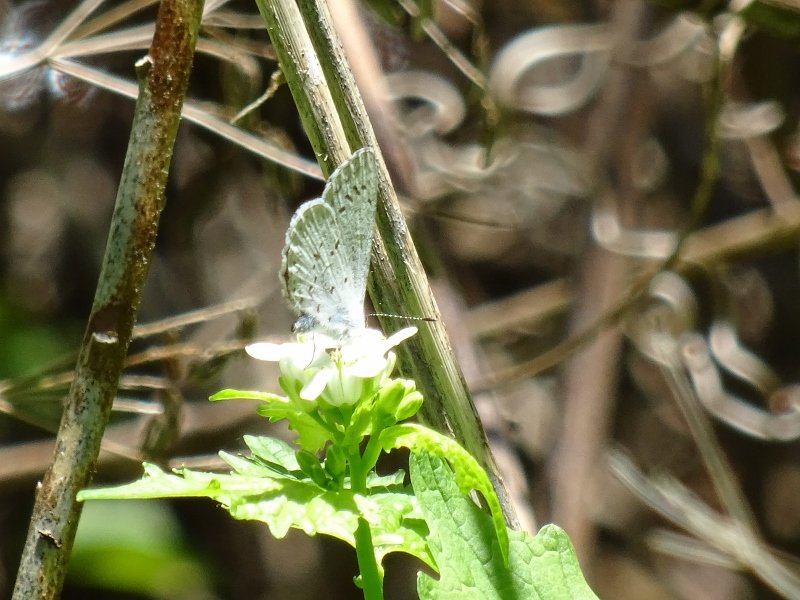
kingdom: Animalia
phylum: Arthropoda
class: Insecta
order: Lepidoptera
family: Lycaenidae
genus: Celastrina
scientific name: Celastrina
